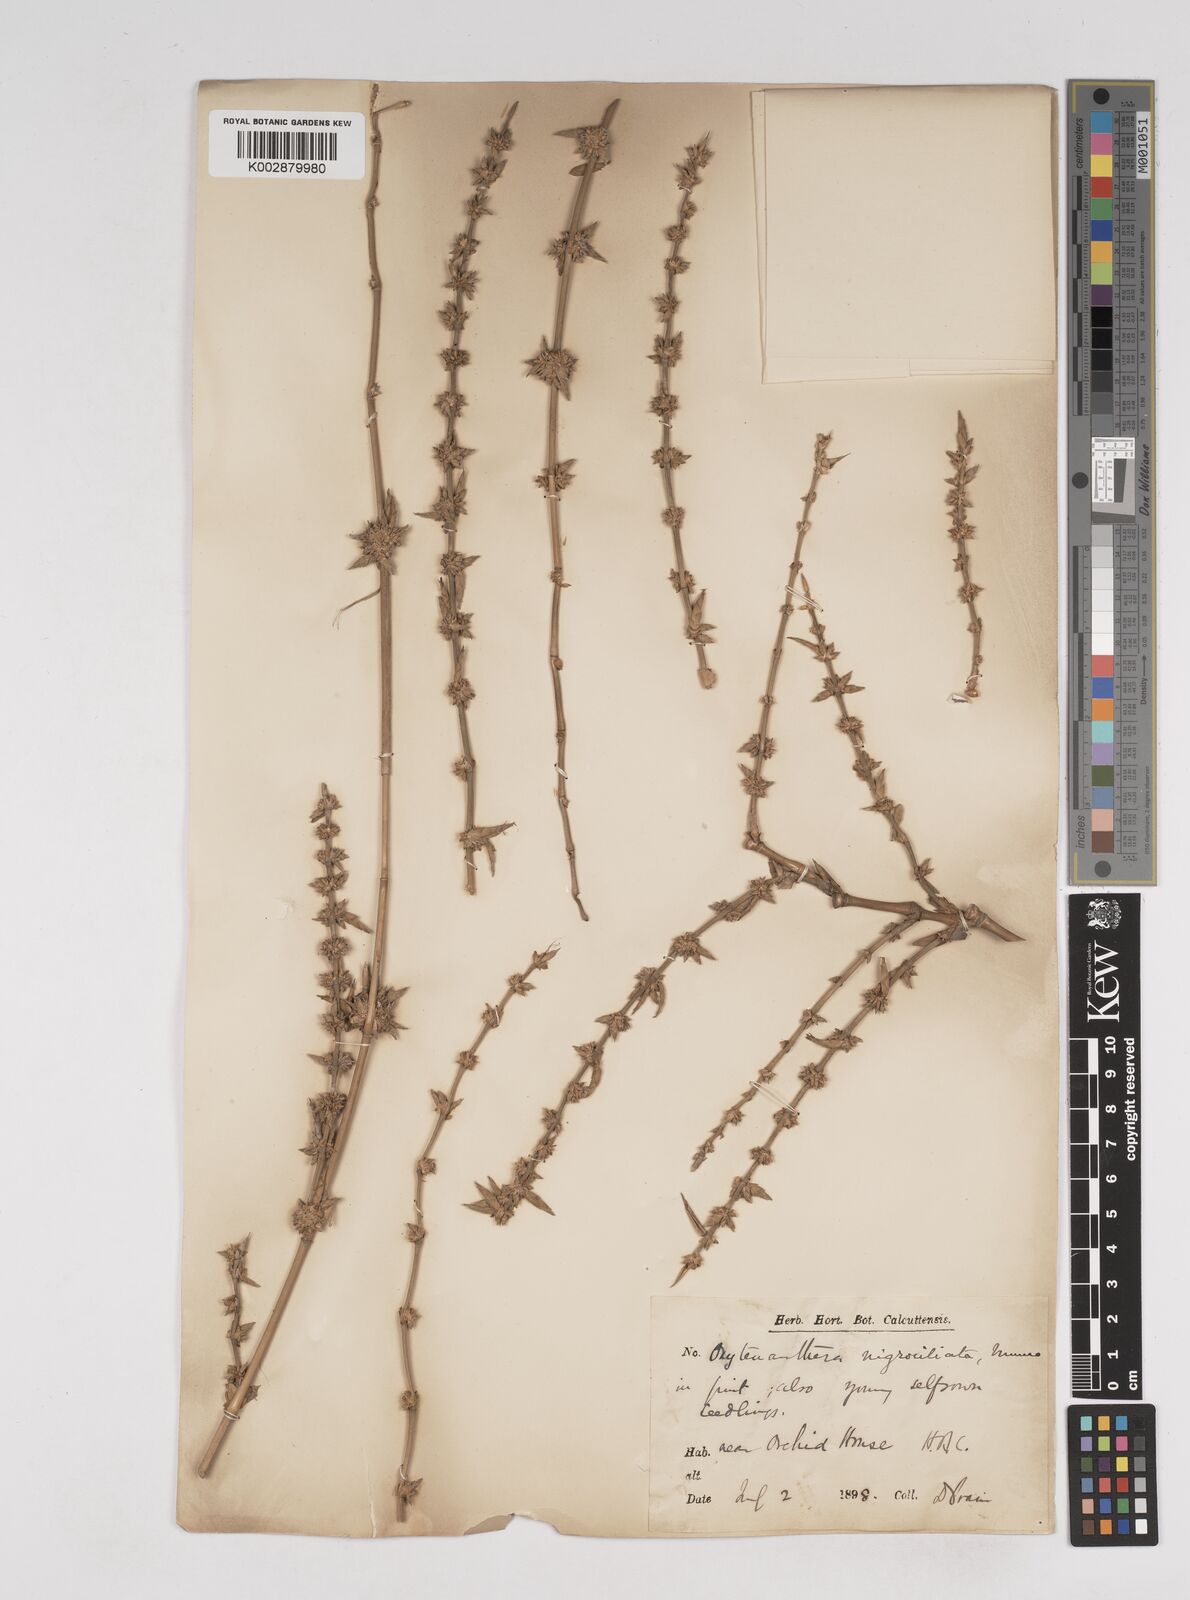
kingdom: Plantae
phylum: Tracheophyta
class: Liliopsida
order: Poales
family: Poaceae
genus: Gigantochloa
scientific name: Gigantochloa nigrociliata
